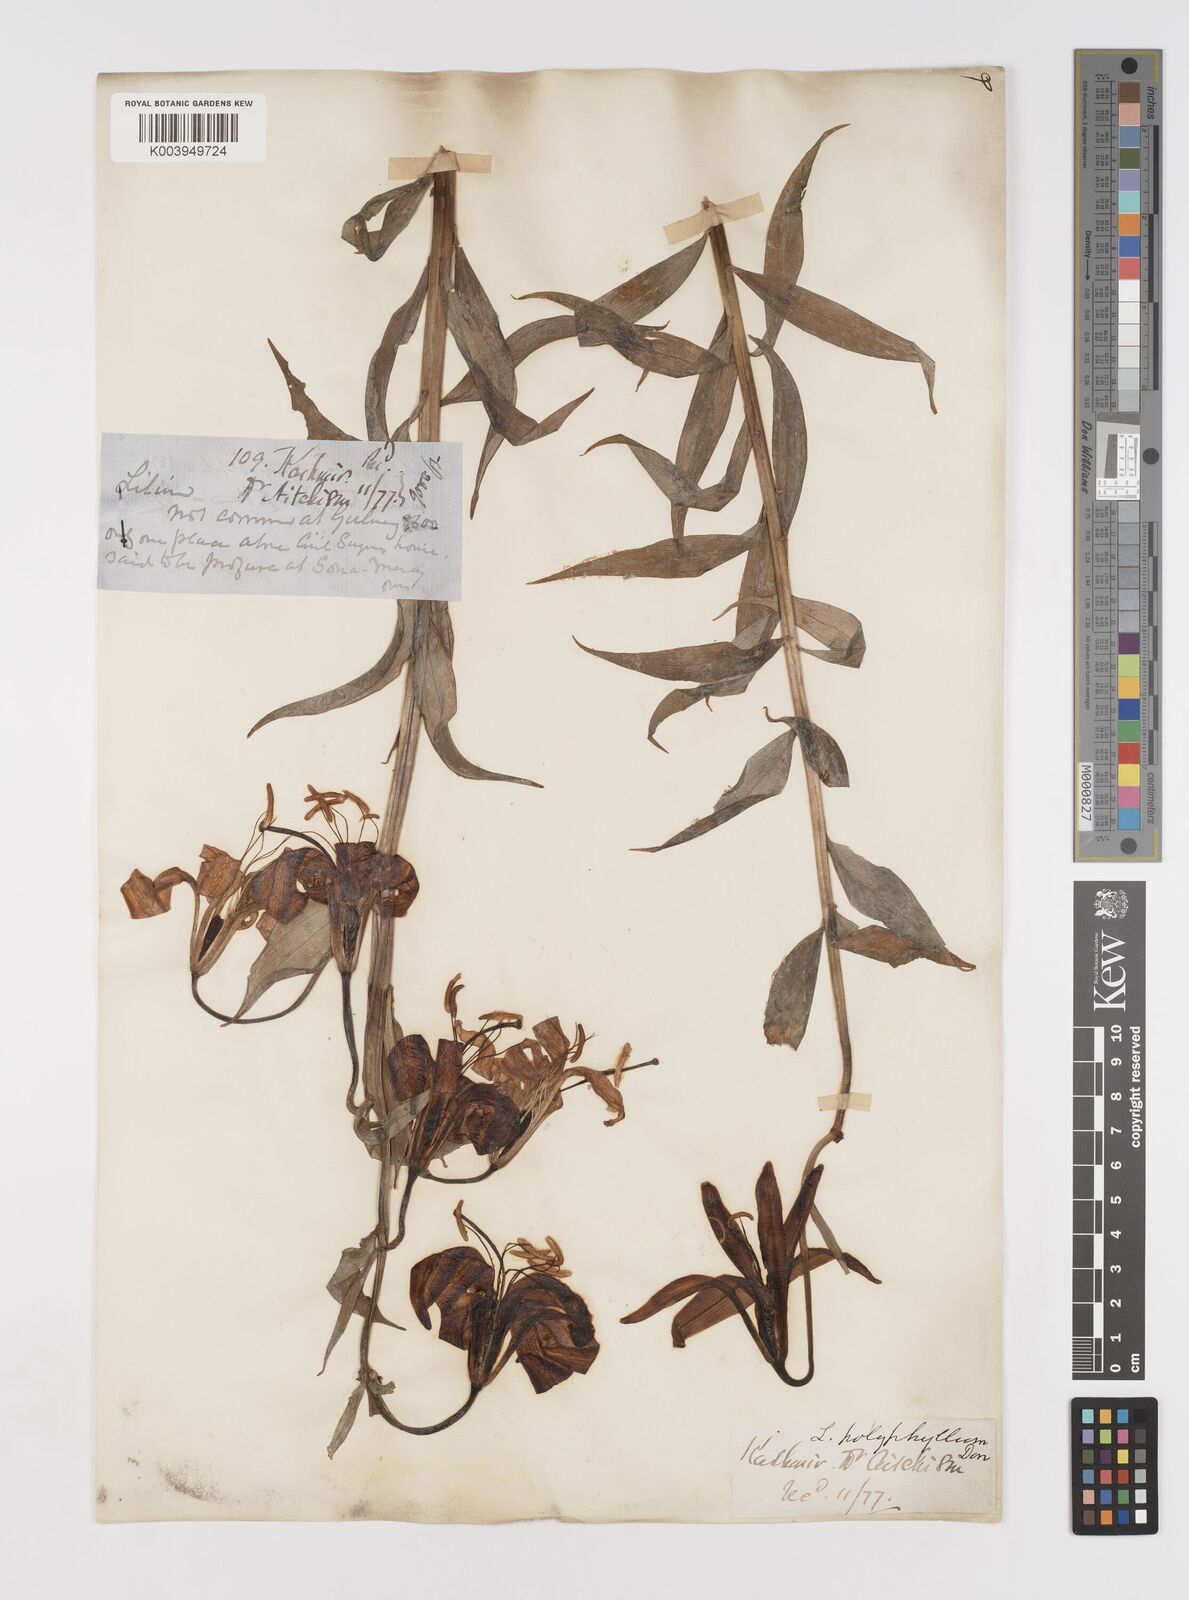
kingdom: Plantae
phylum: Tracheophyta
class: Liliopsida
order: Liliales
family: Liliaceae
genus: Lilium
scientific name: Lilium polyphyllum
